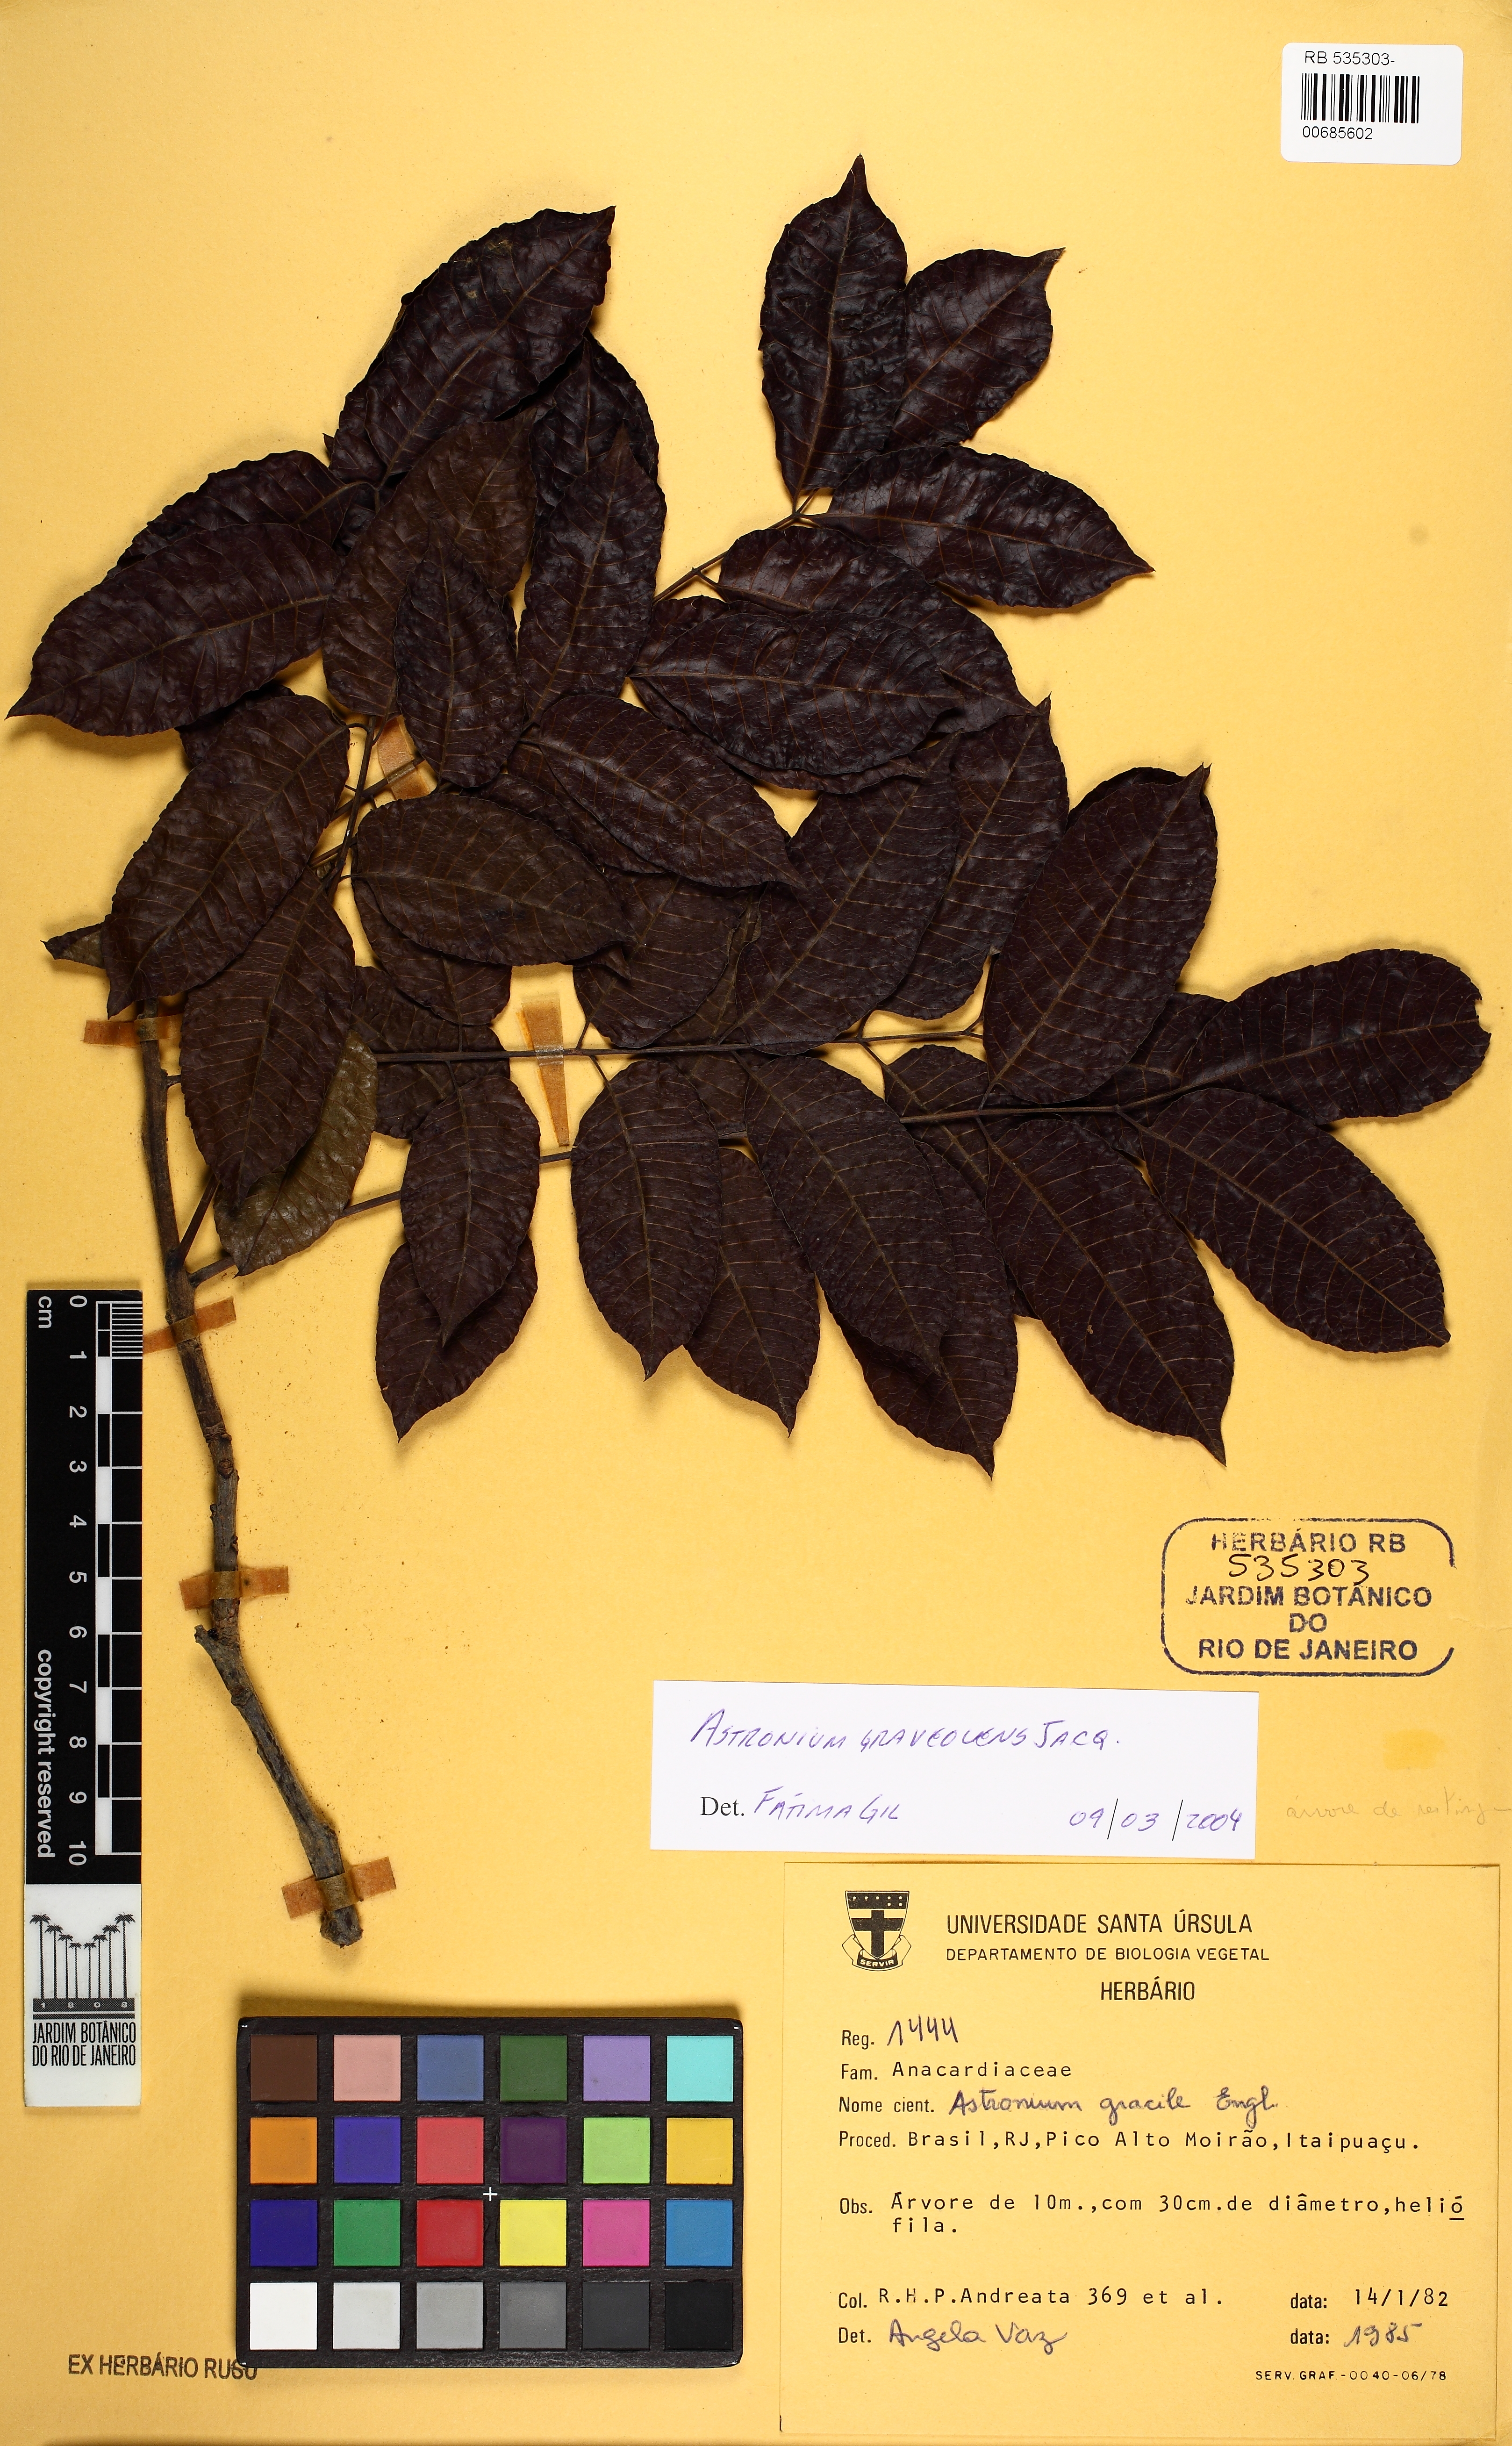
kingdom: Plantae
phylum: Tracheophyta
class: Magnoliopsida
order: Sapindales
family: Anacardiaceae
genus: Astronium
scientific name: Astronium graveolens
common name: Glassywood
